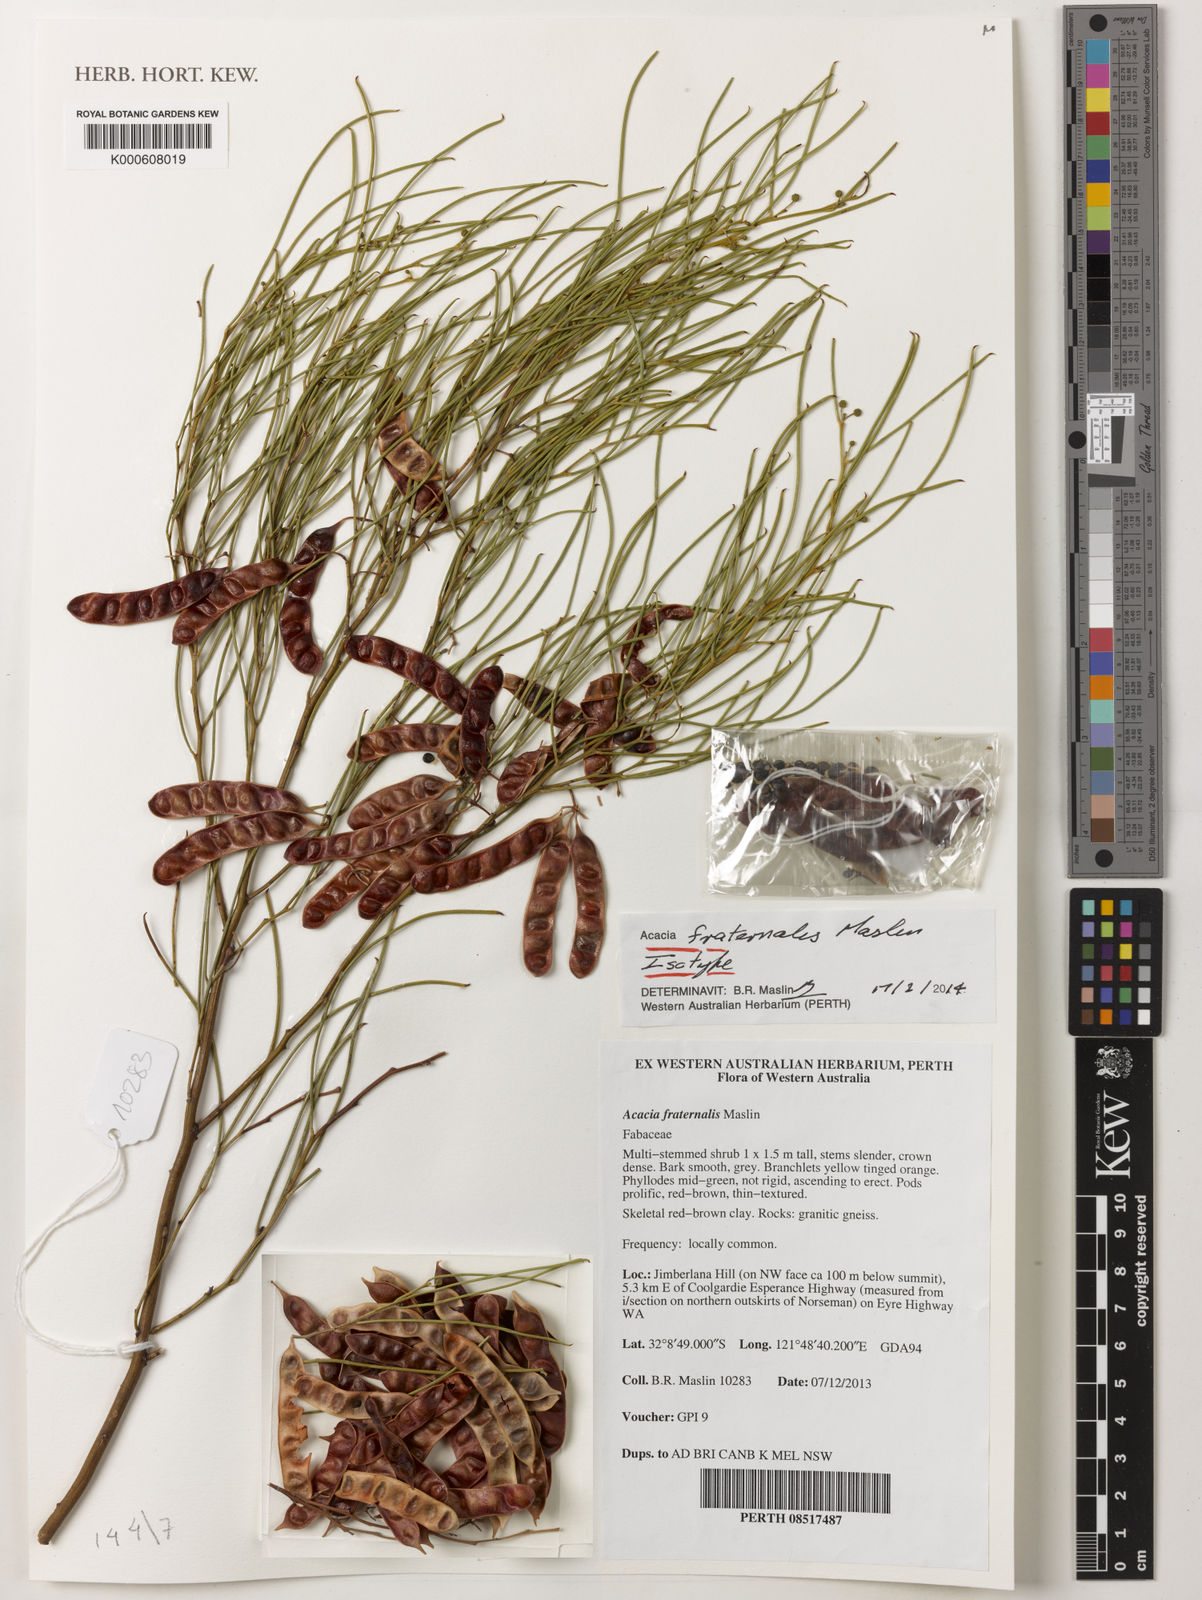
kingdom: Plantae
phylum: Tracheophyta
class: Magnoliopsida
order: Fabales
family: Fabaceae
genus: Acacia
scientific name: Acacia fraternalis
